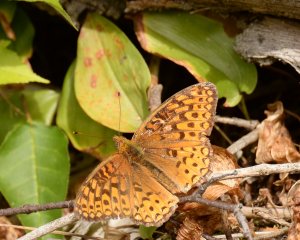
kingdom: Animalia
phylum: Arthropoda
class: Insecta
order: Lepidoptera
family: Nymphalidae
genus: Speyeria
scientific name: Speyeria atlantis
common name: Atlantis Fritillary
